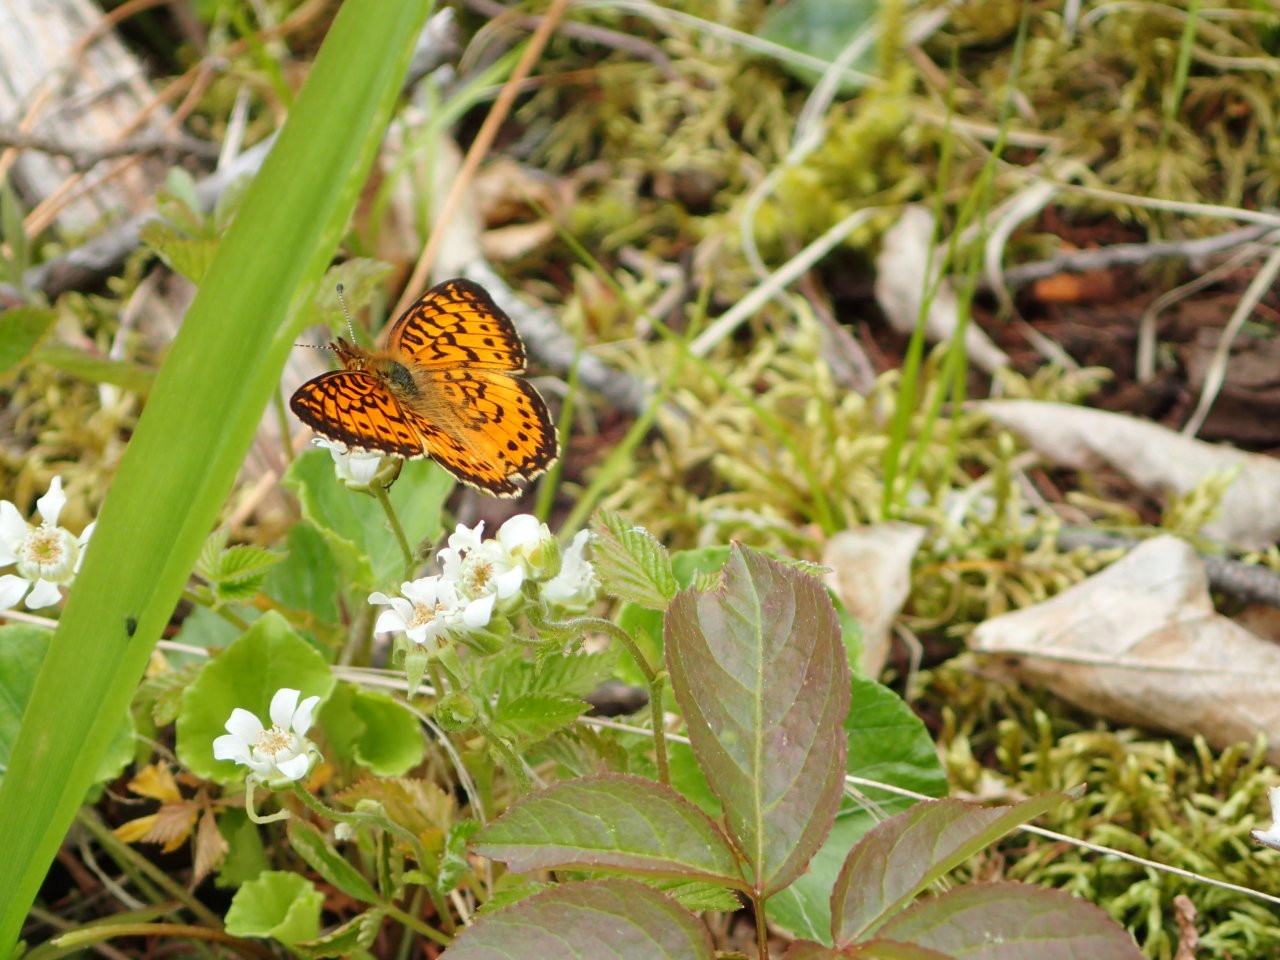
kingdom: Animalia
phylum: Arthropoda
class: Insecta
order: Lepidoptera
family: Nymphalidae
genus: Boloria
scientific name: Boloria selene
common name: Silver-bordered Fritillary
